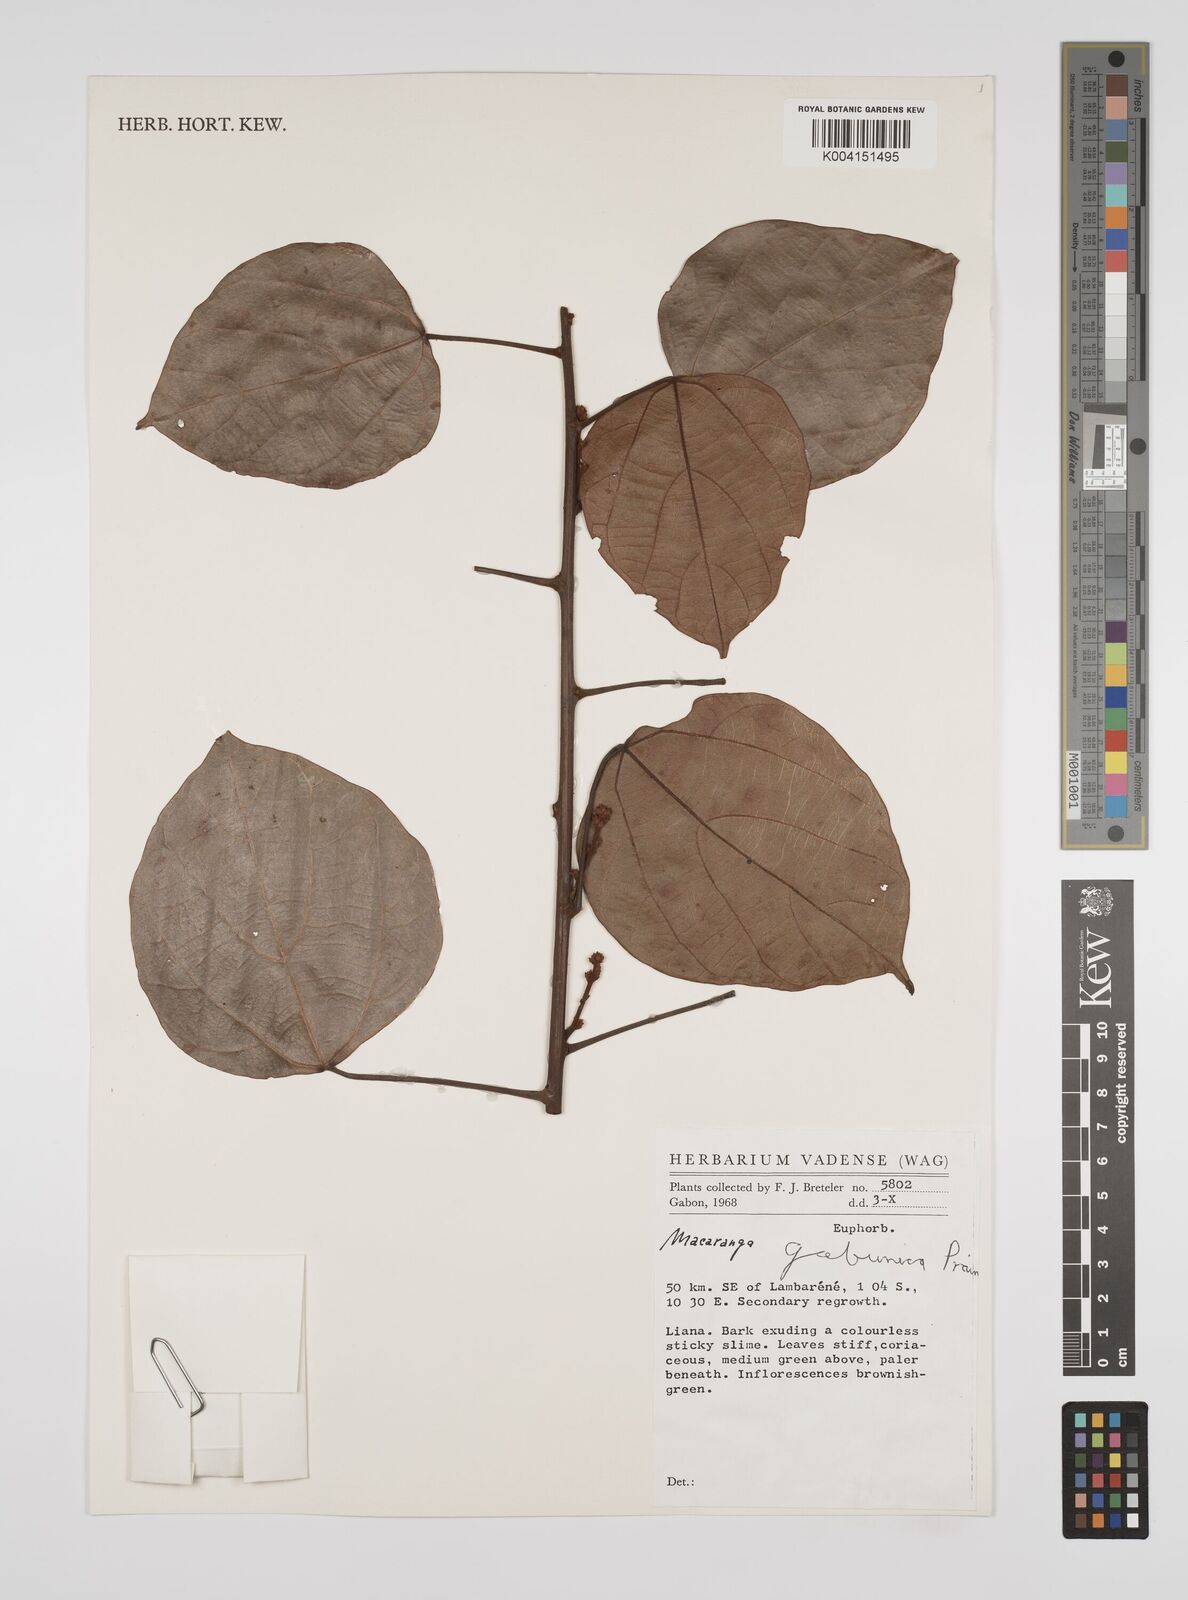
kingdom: Plantae
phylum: Tracheophyta
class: Magnoliopsida
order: Malpighiales
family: Euphorbiaceae
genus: Macaranga
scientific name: Macaranga gabunica
